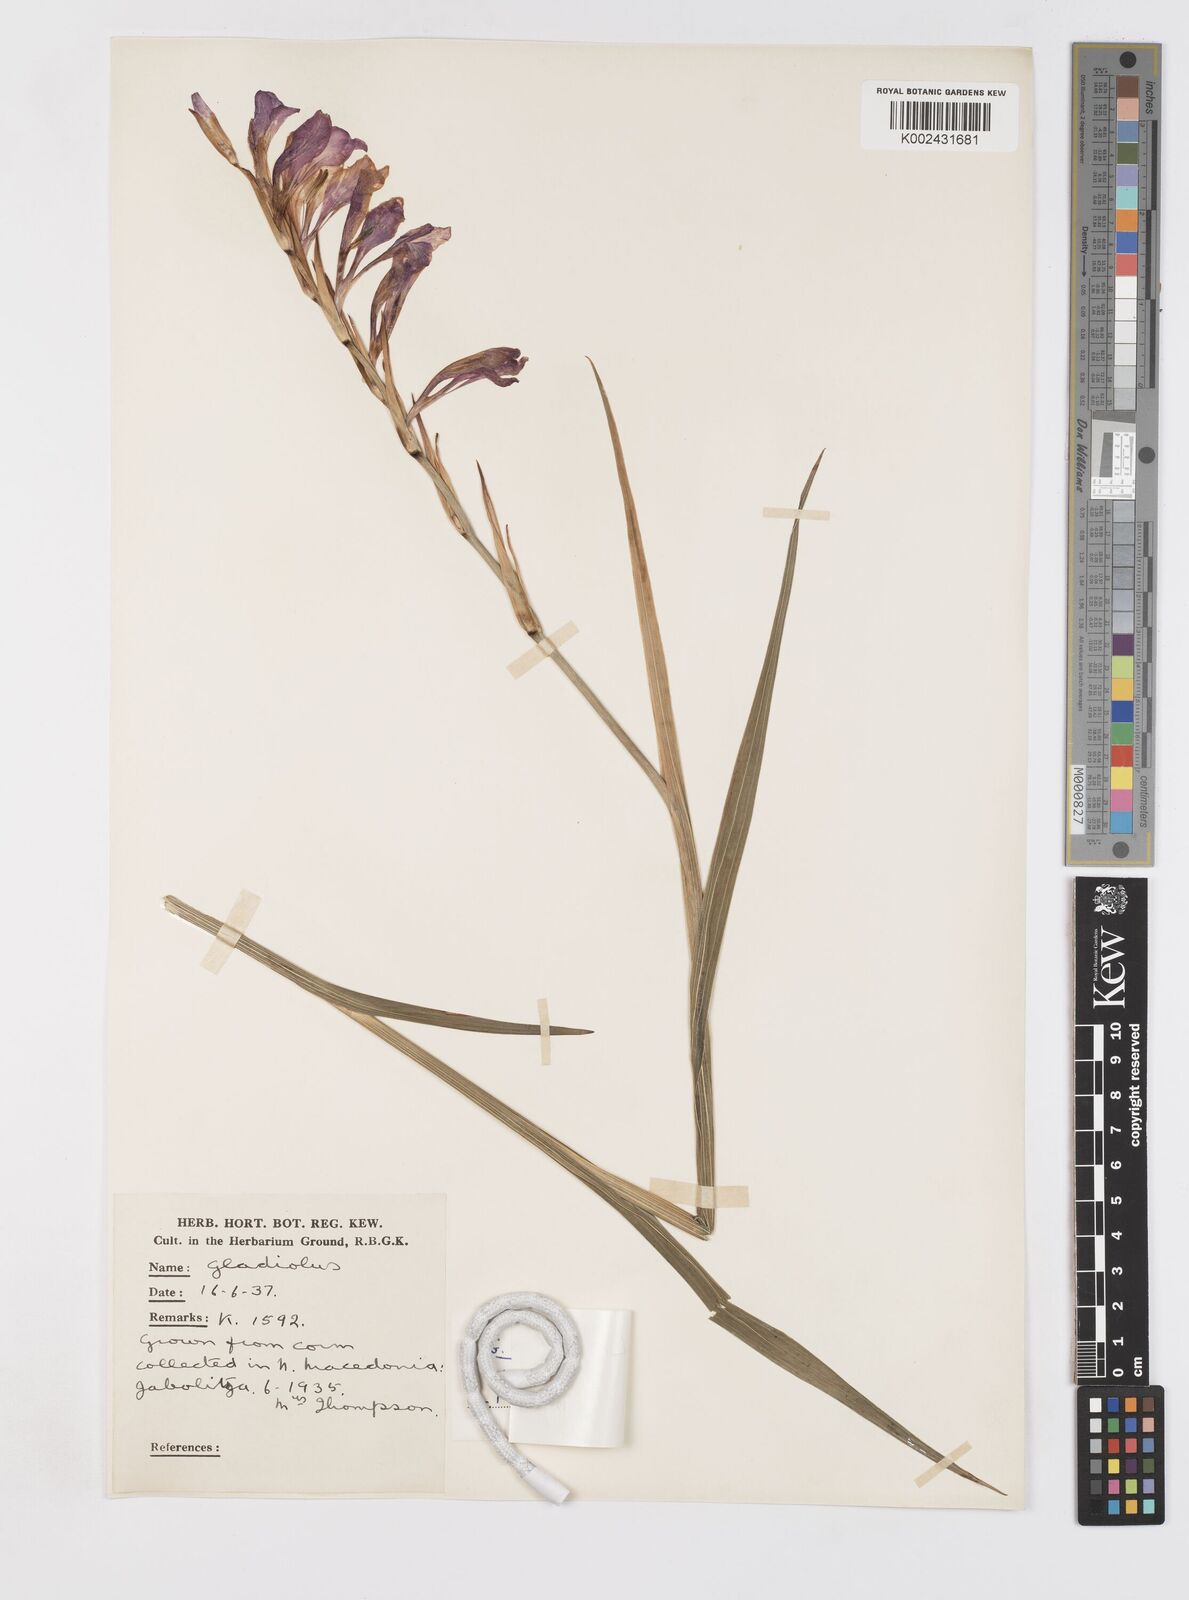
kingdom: Plantae
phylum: Tracheophyta
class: Liliopsida
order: Asparagales
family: Iridaceae
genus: Gladiolus
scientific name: Gladiolus illyricus
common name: Wild gladiolus
